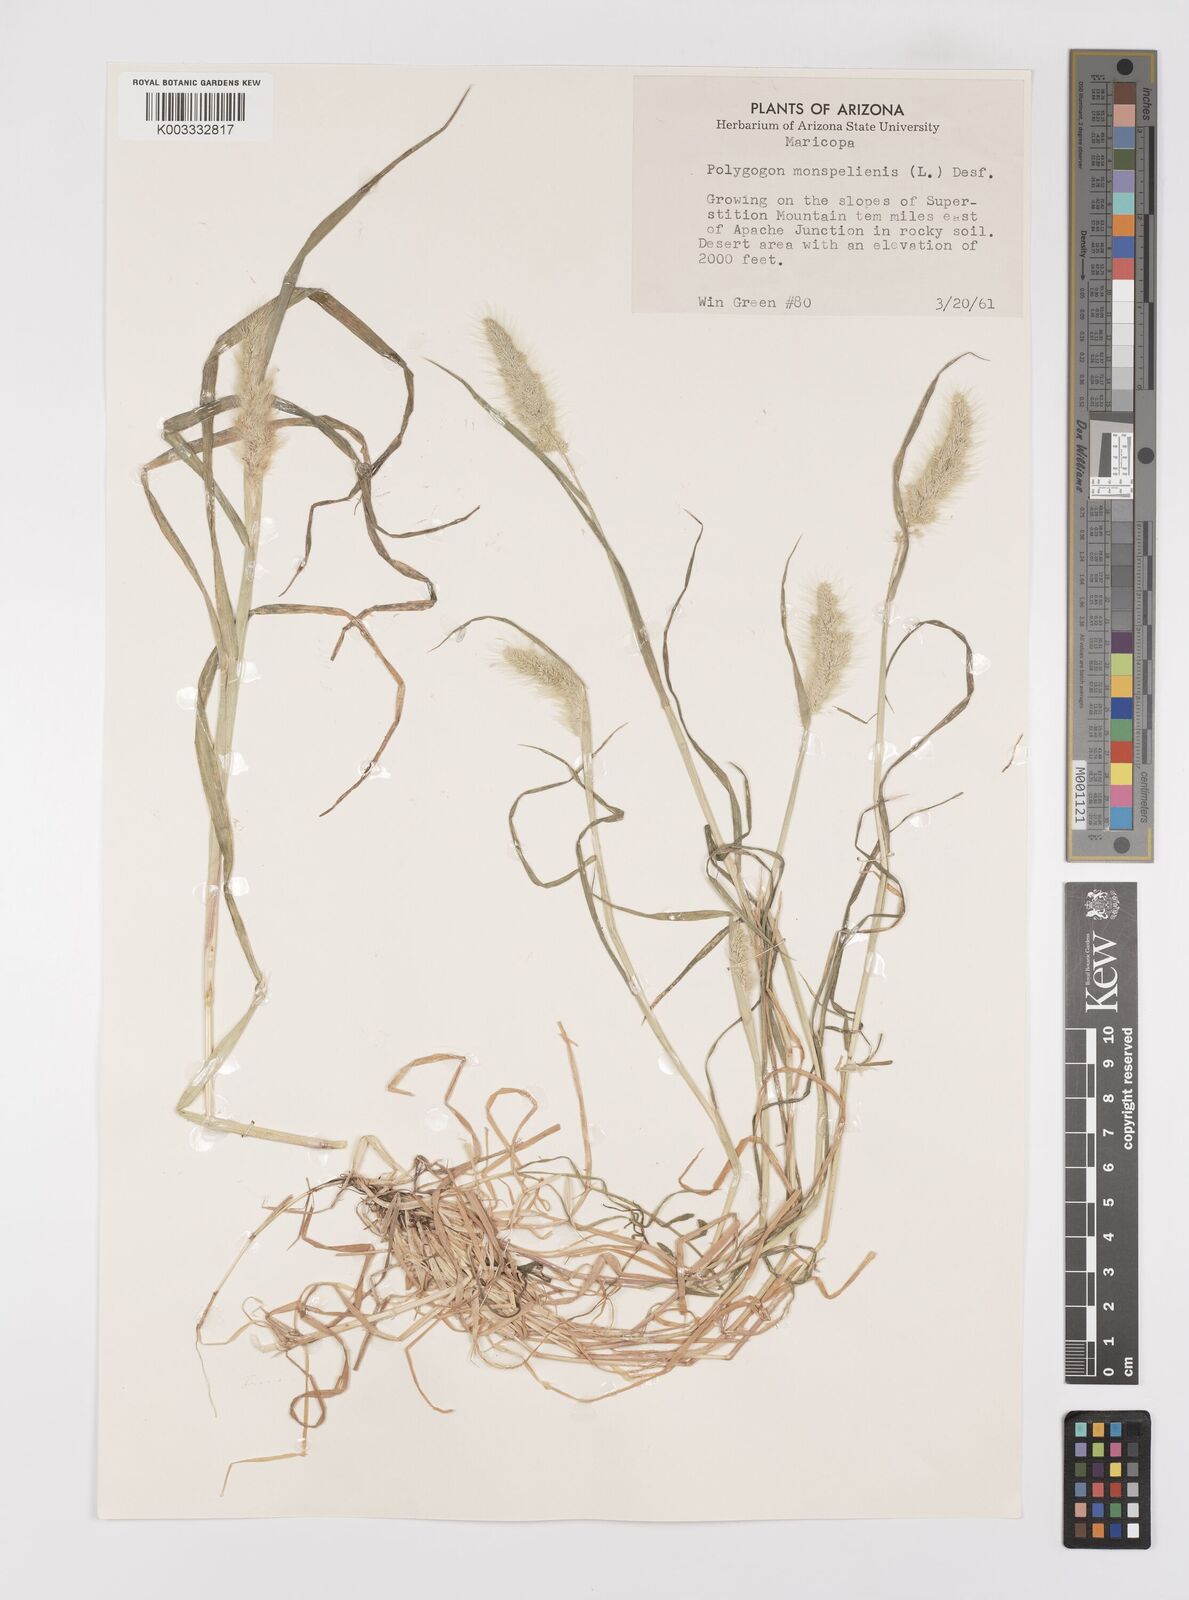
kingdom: Plantae
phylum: Tracheophyta
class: Liliopsida
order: Poales
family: Poaceae
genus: Polypogon
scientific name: Polypogon monspeliensis
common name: Annual rabbitsfoot grass
